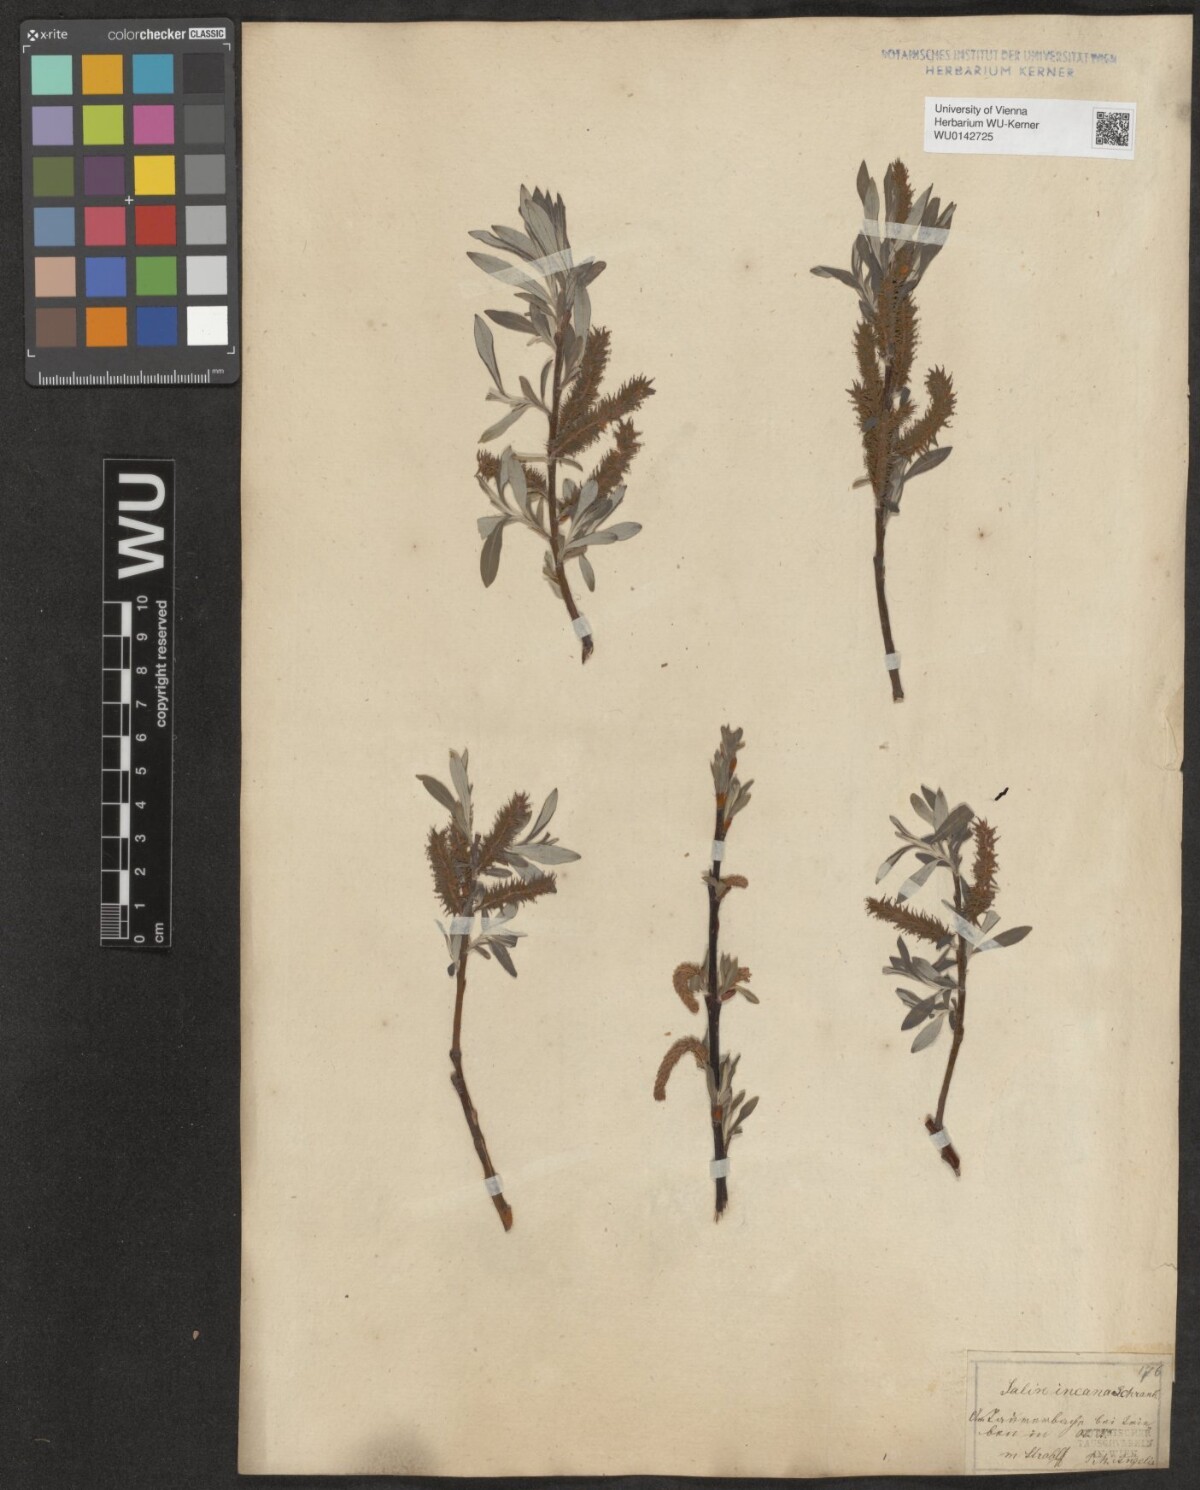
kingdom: Plantae
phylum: Tracheophyta
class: Magnoliopsida
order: Malpighiales
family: Salicaceae
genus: Salix
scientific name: Salix eleagnos
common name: Elaeagnus willow
